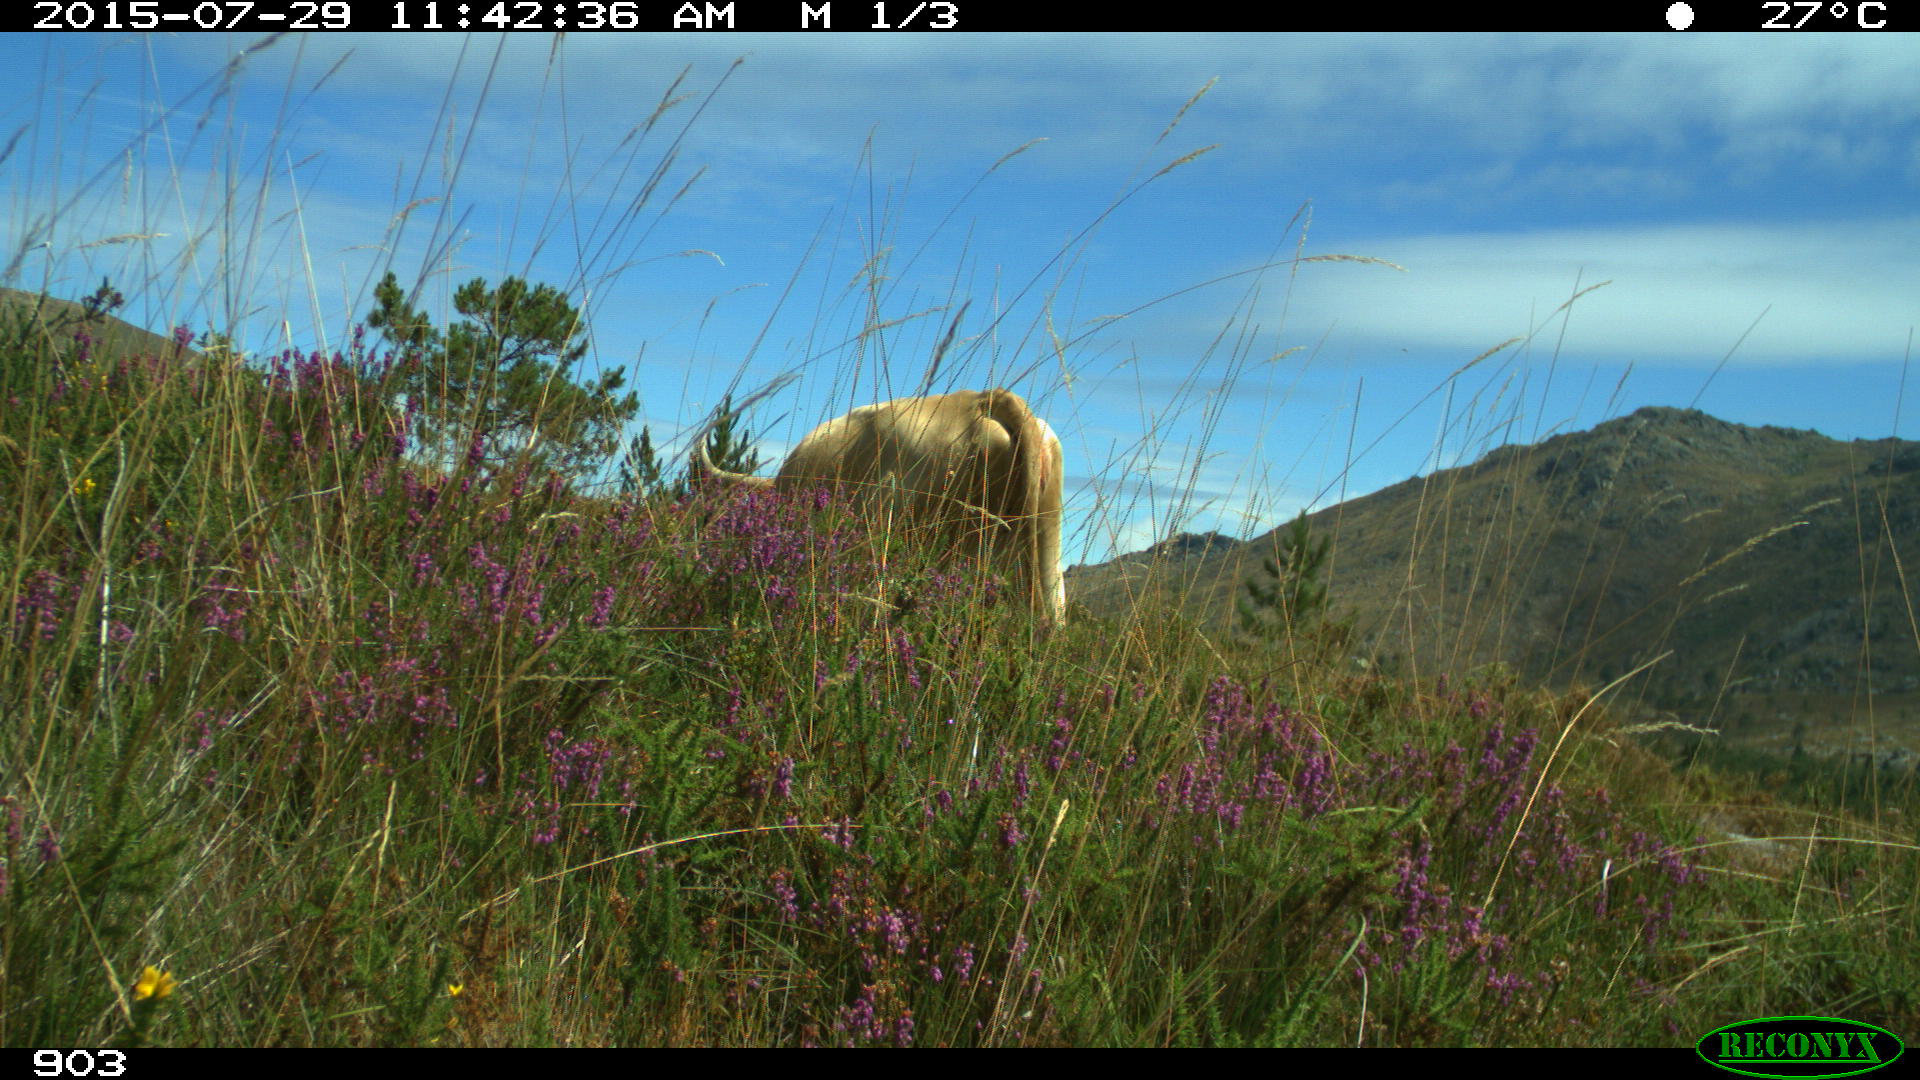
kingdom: Animalia
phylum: Chordata
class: Mammalia
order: Artiodactyla
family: Bovidae
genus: Bos
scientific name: Bos taurus
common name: Domesticated cattle
